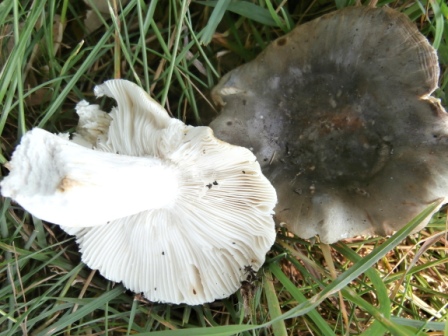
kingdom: Fungi
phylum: Basidiomycota
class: Agaricomycetes
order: Russulales
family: Russulaceae
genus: Russula
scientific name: Russula heterophylla
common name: gaffelbladet skørhat
